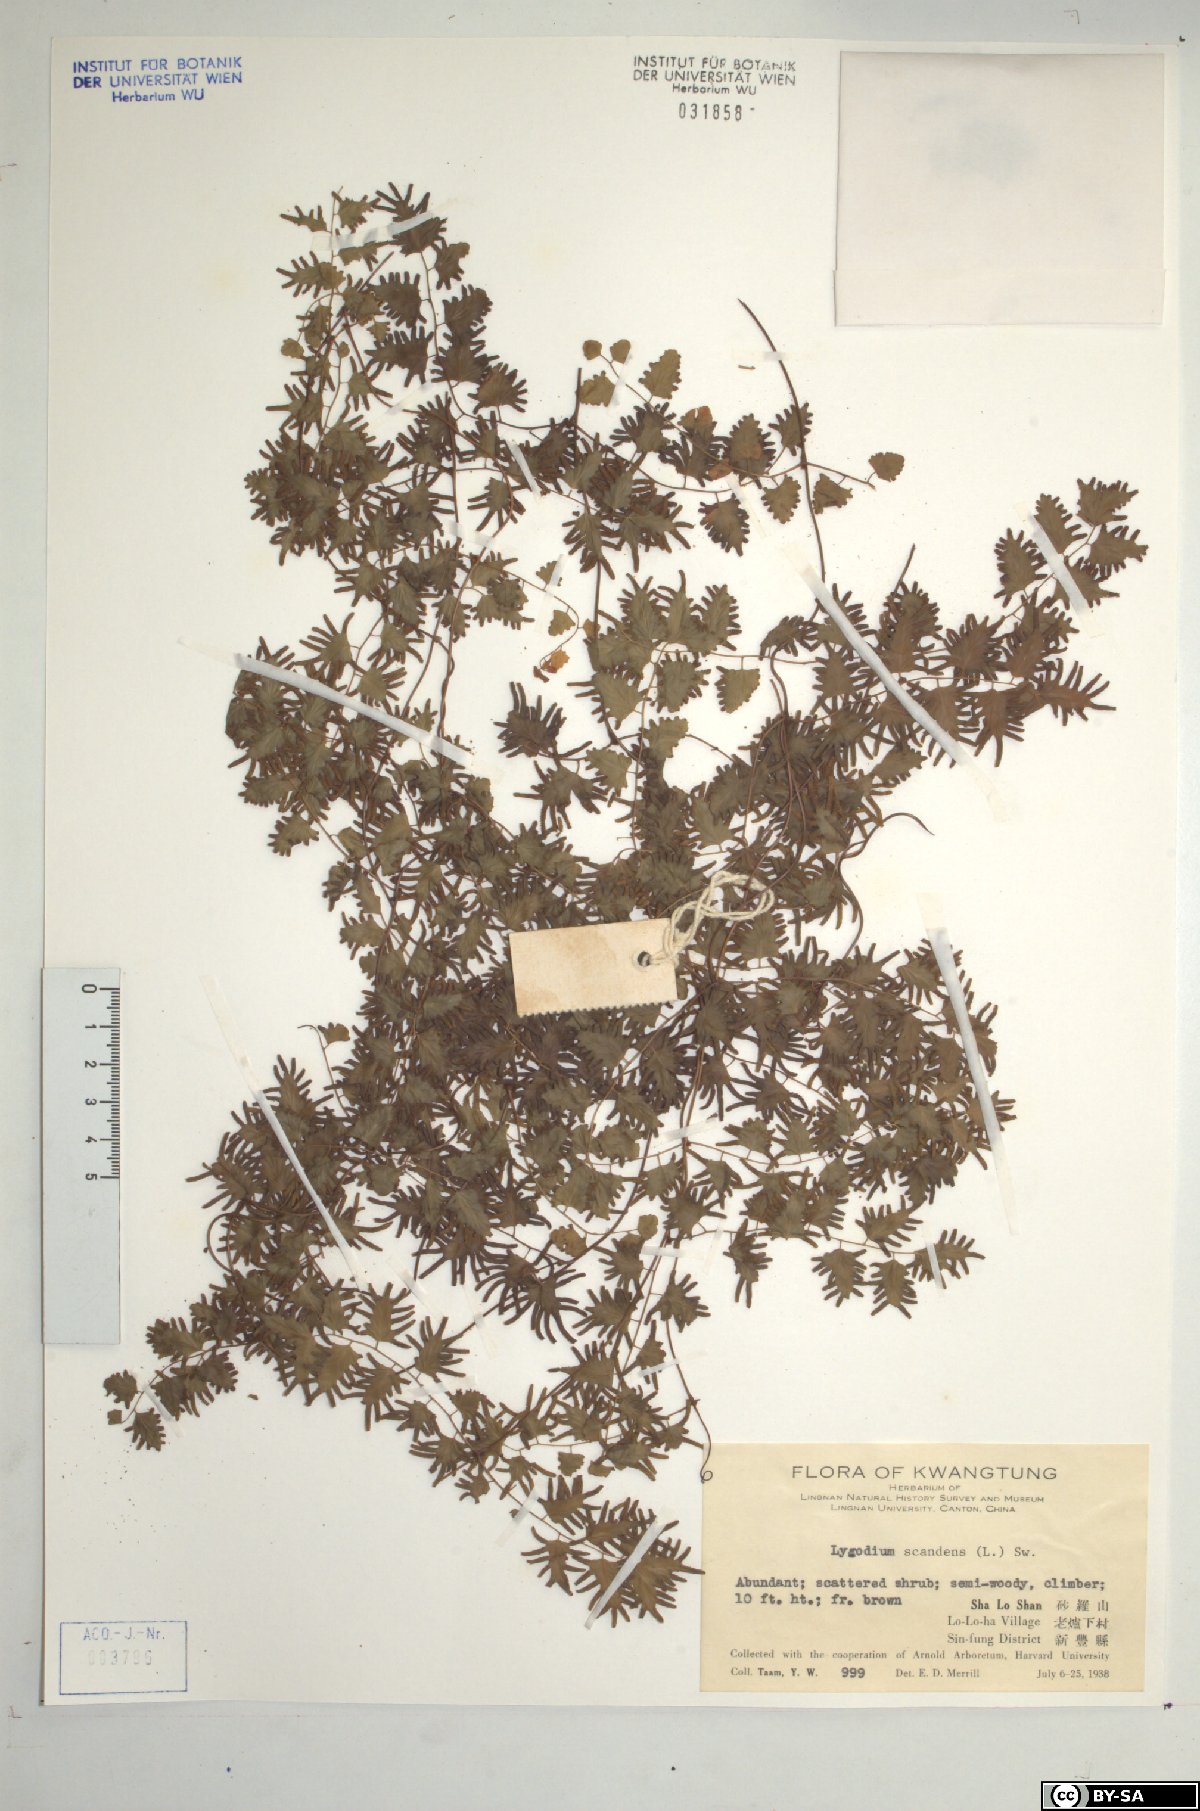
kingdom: Plantae
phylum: Tracheophyta
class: Polypodiopsida
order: Schizaeales
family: Lygodiaceae
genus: Lygodium
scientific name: Lygodium flexuosum
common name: Maidenhair creeper
